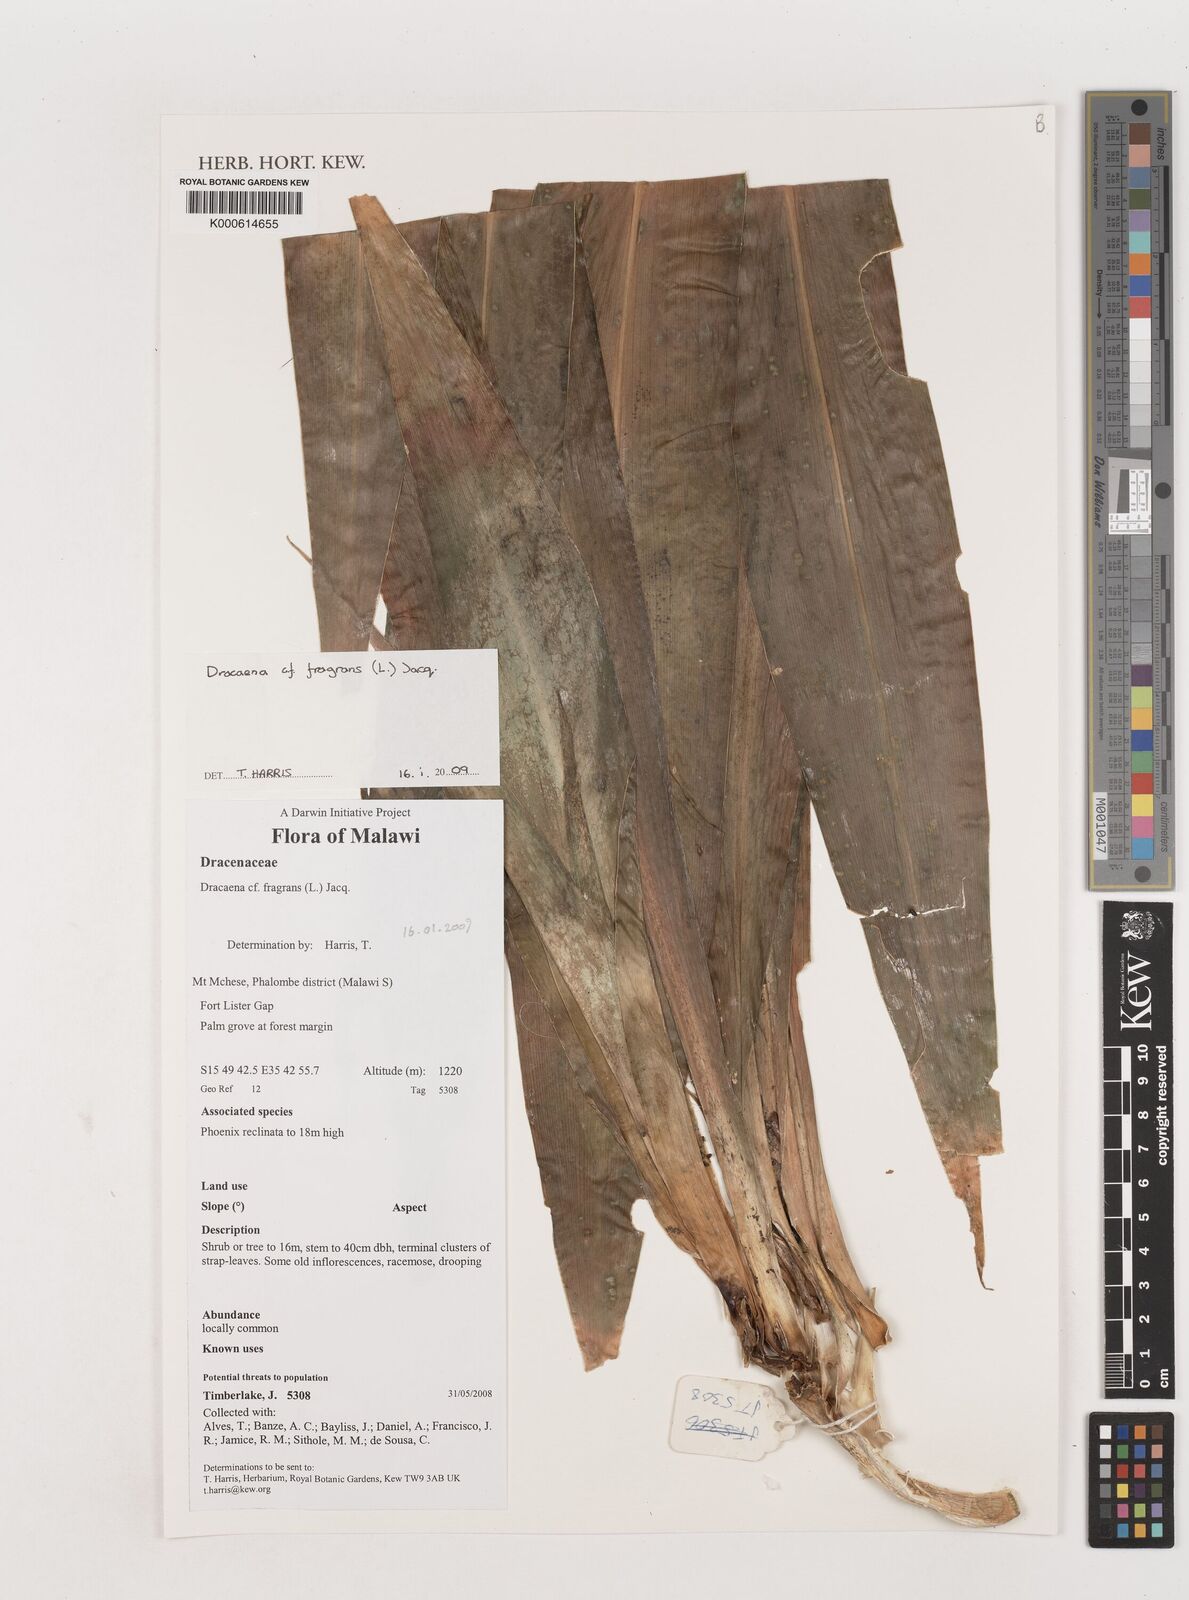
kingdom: Plantae
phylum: Tracheophyta
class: Liliopsida
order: Asparagales
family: Asparagaceae
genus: Dracaena
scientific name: Dracaena
